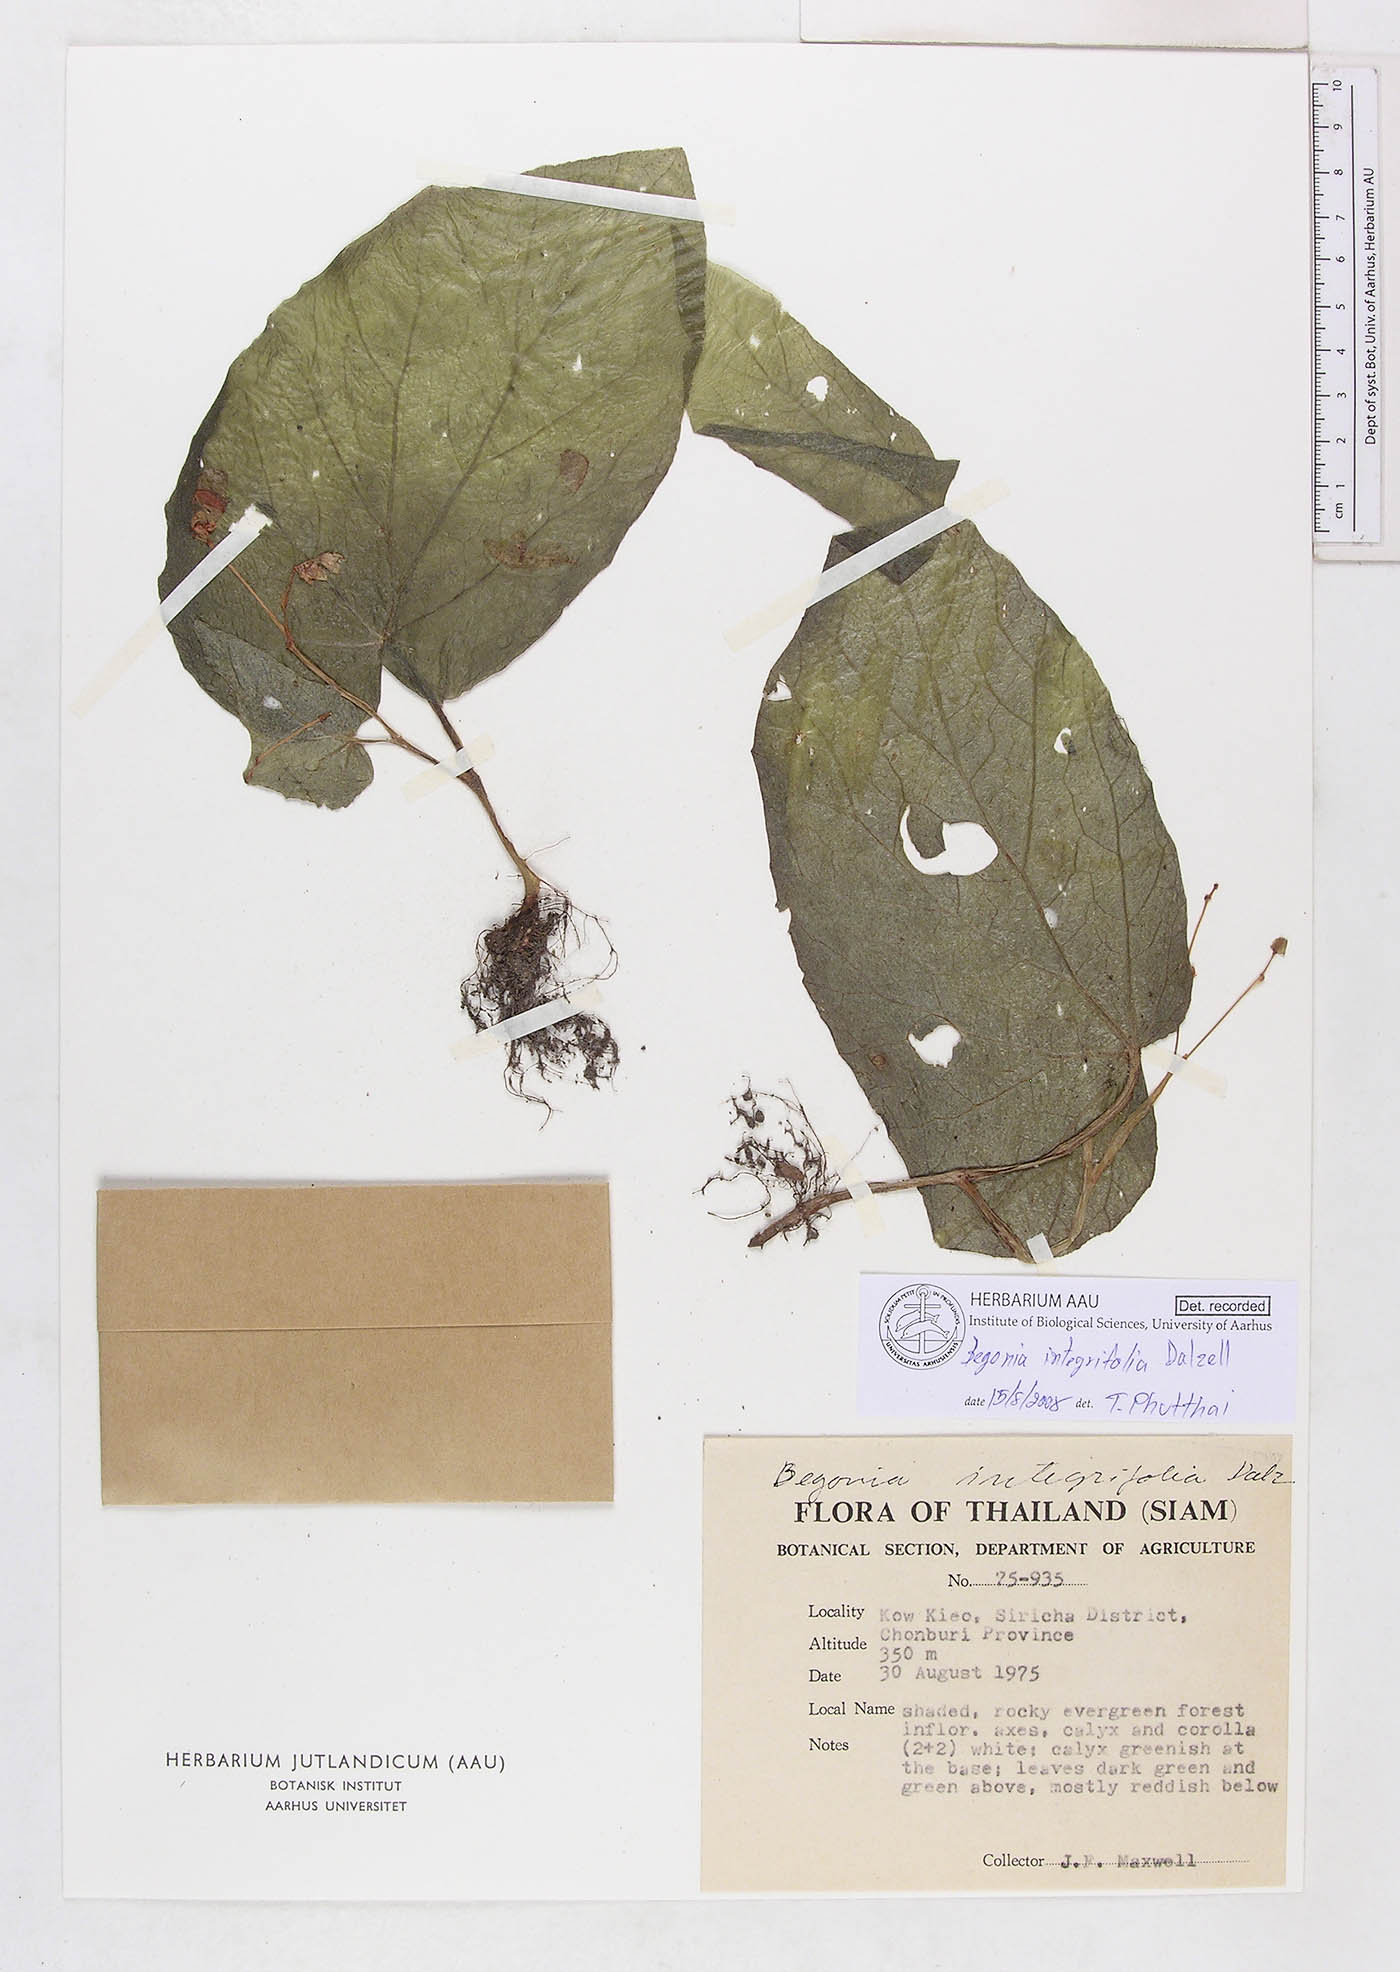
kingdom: Plantae
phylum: Tracheophyta
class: Magnoliopsida
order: Cucurbitales
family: Begoniaceae
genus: Begonia
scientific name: Begonia integrifolia
